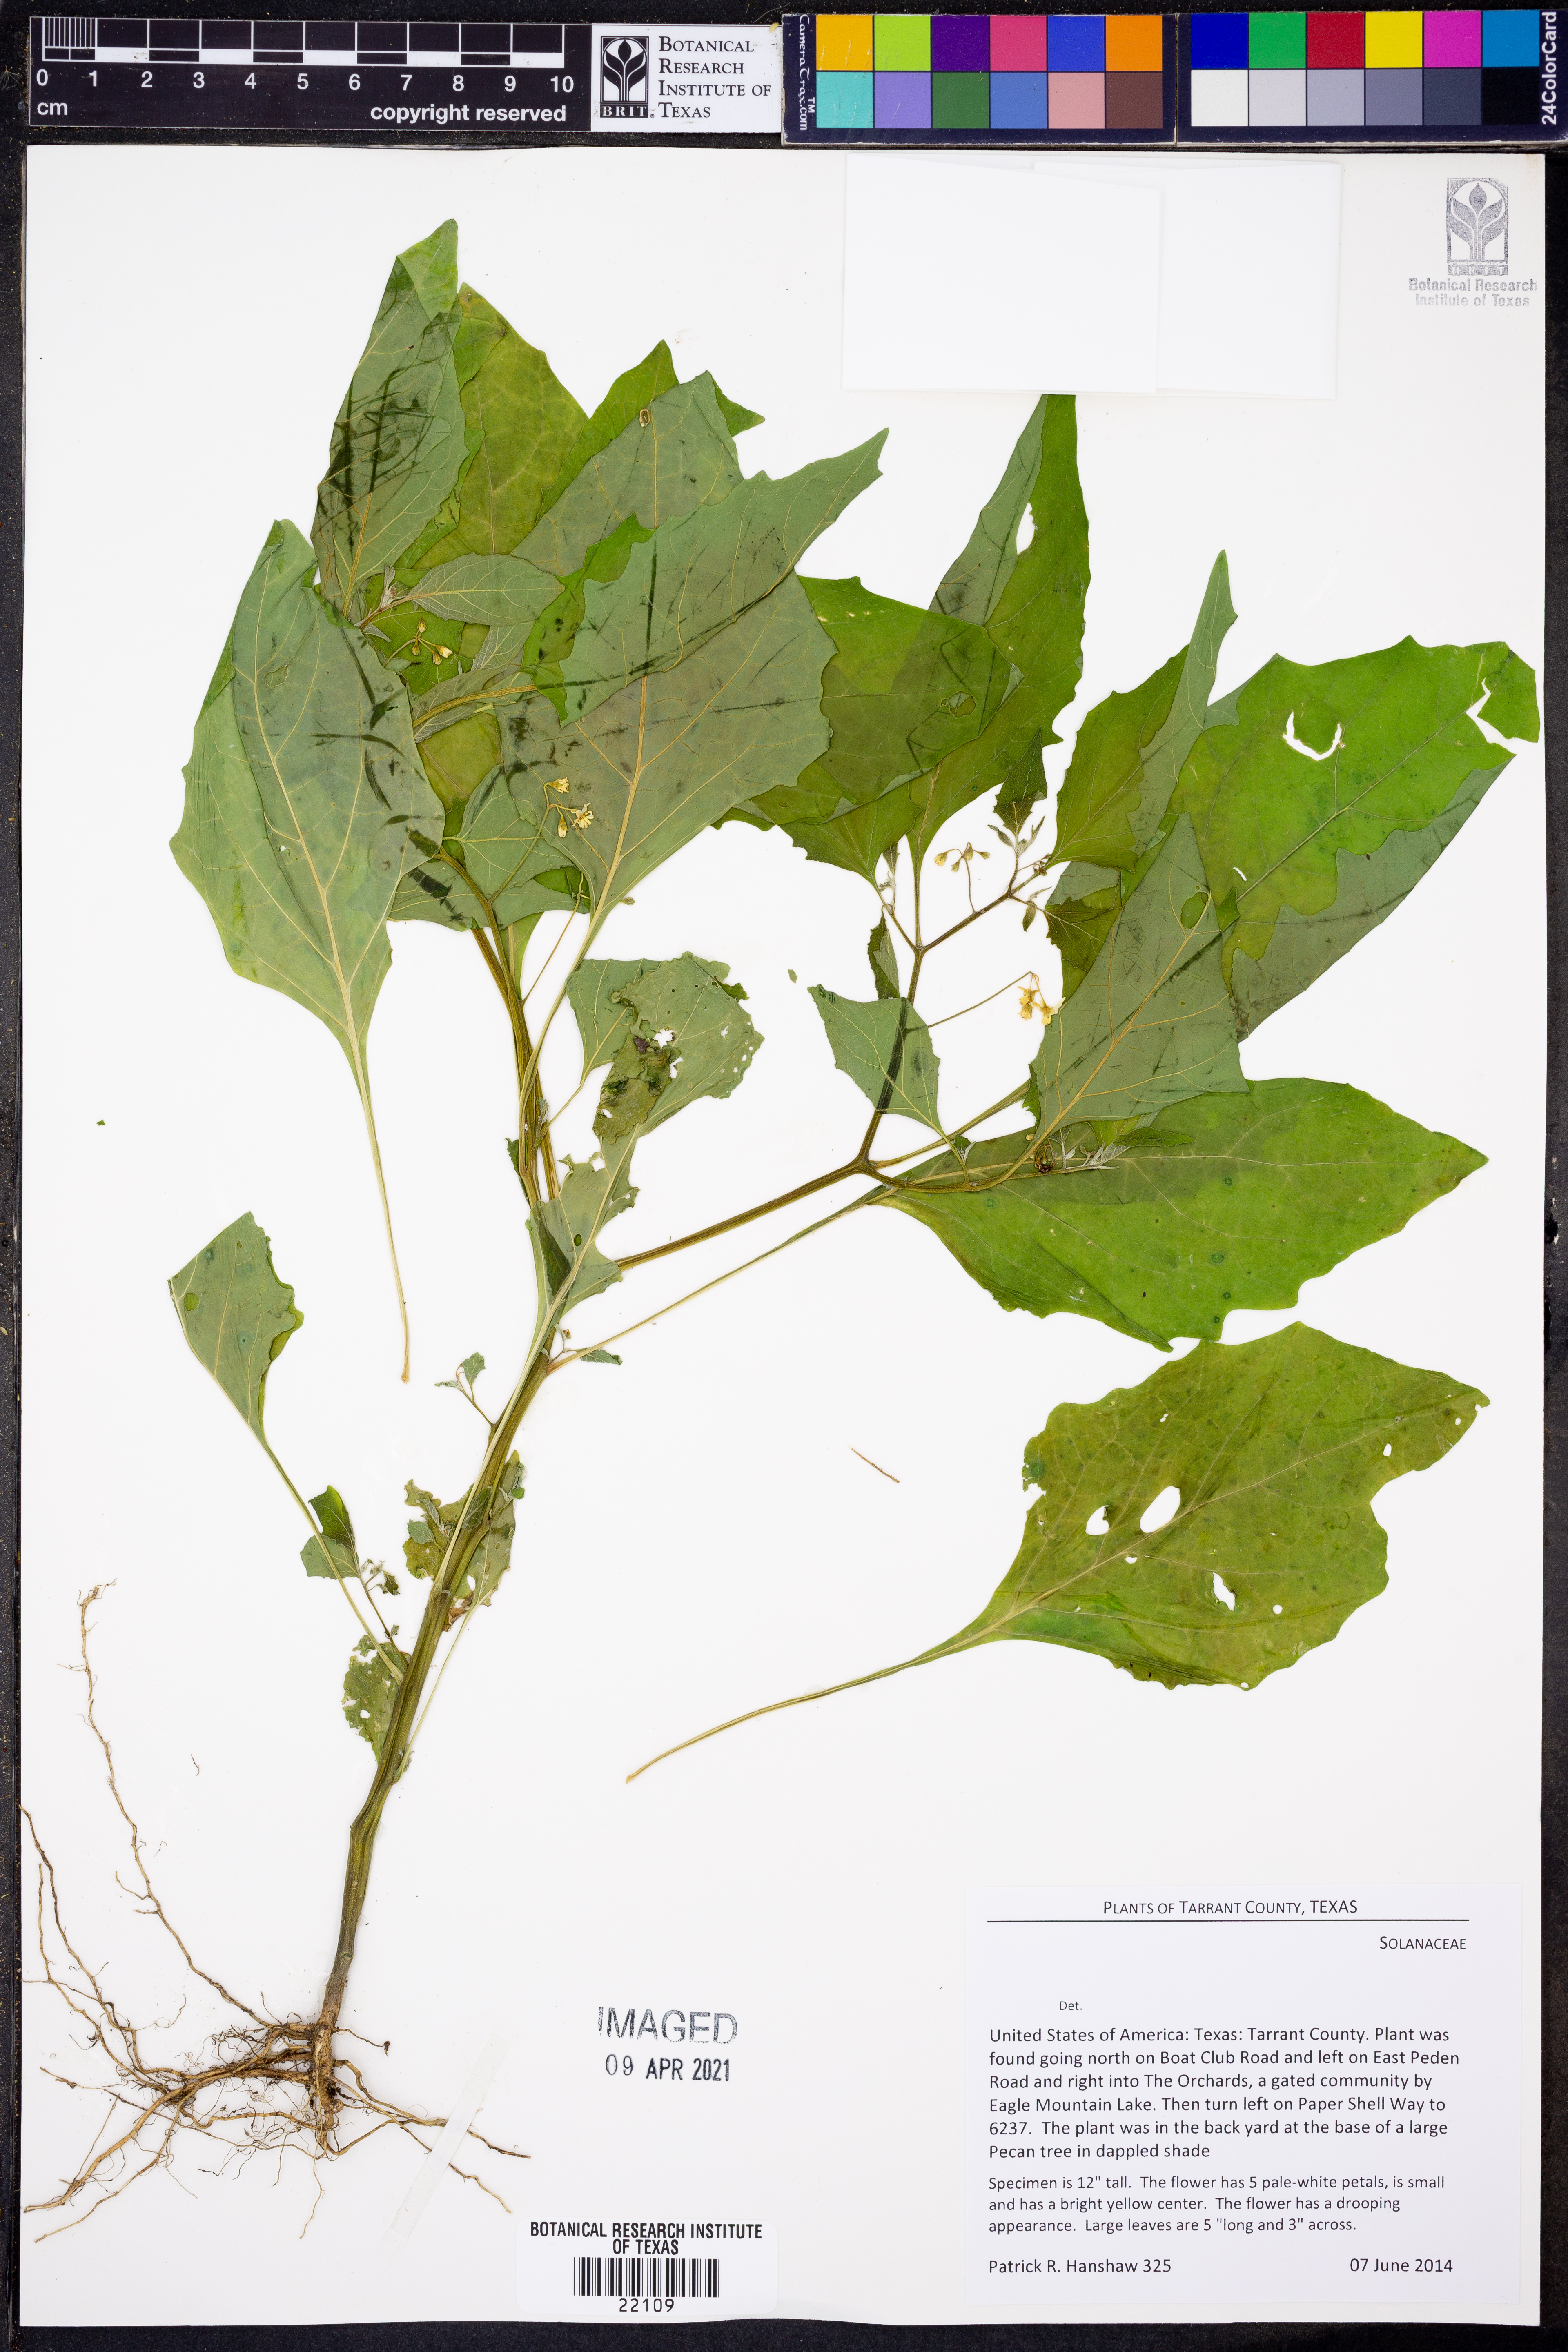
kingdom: Plantae
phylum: Tracheophyta
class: Magnoliopsida
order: Solanales
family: Solanaceae
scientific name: Solanaceae
